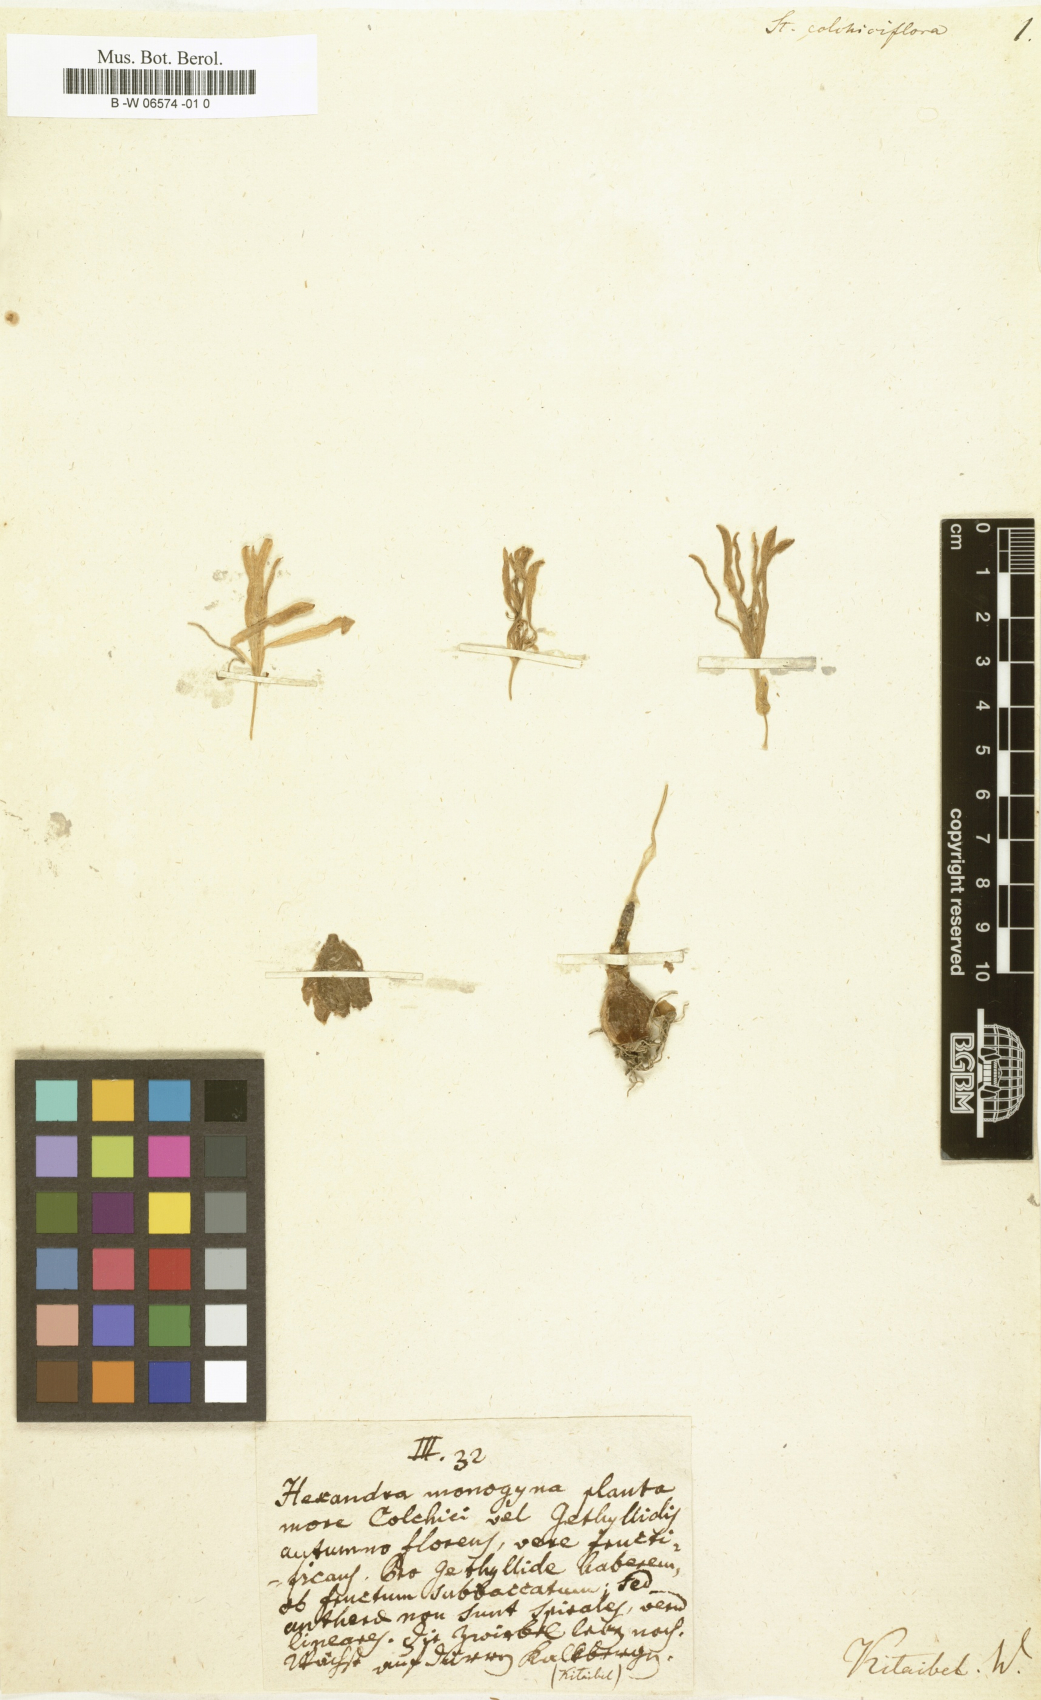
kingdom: Plantae
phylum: Tracheophyta
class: Liliopsida
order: Asparagales
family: Amaryllidaceae
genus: Sternbergia
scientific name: Sternbergia colchiciflora
